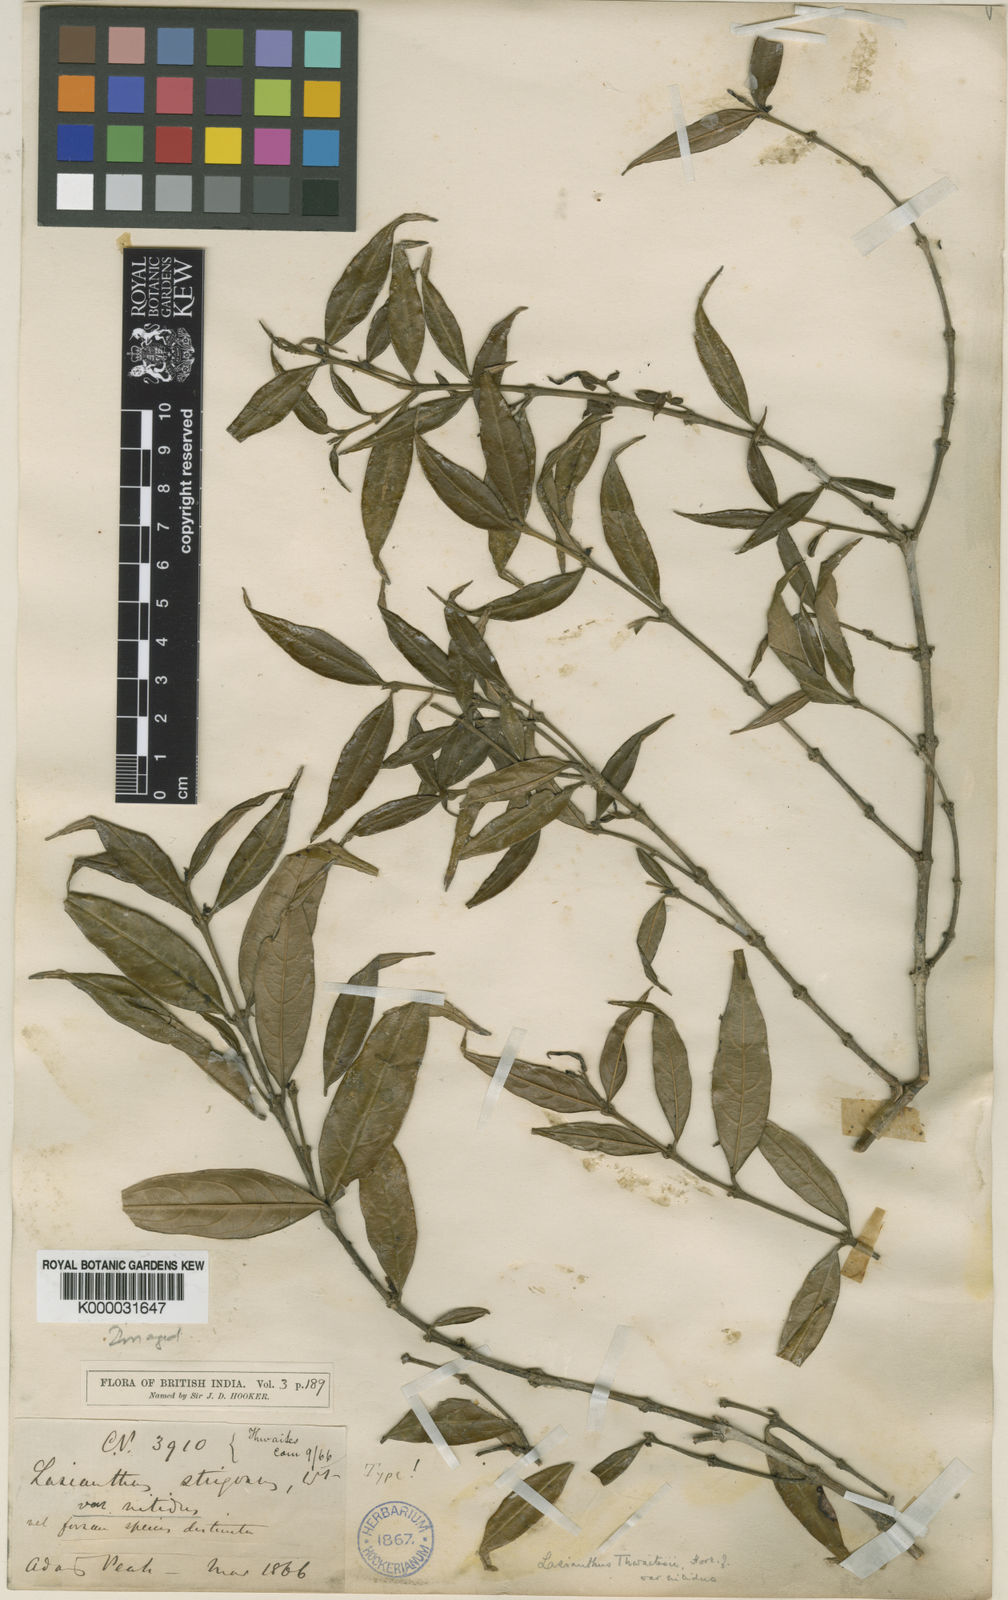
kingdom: Plantae
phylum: Tracheophyta
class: Magnoliopsida
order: Gentianales
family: Rubiaceae
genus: Lasianthus
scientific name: Lasianthus thwaitesii
